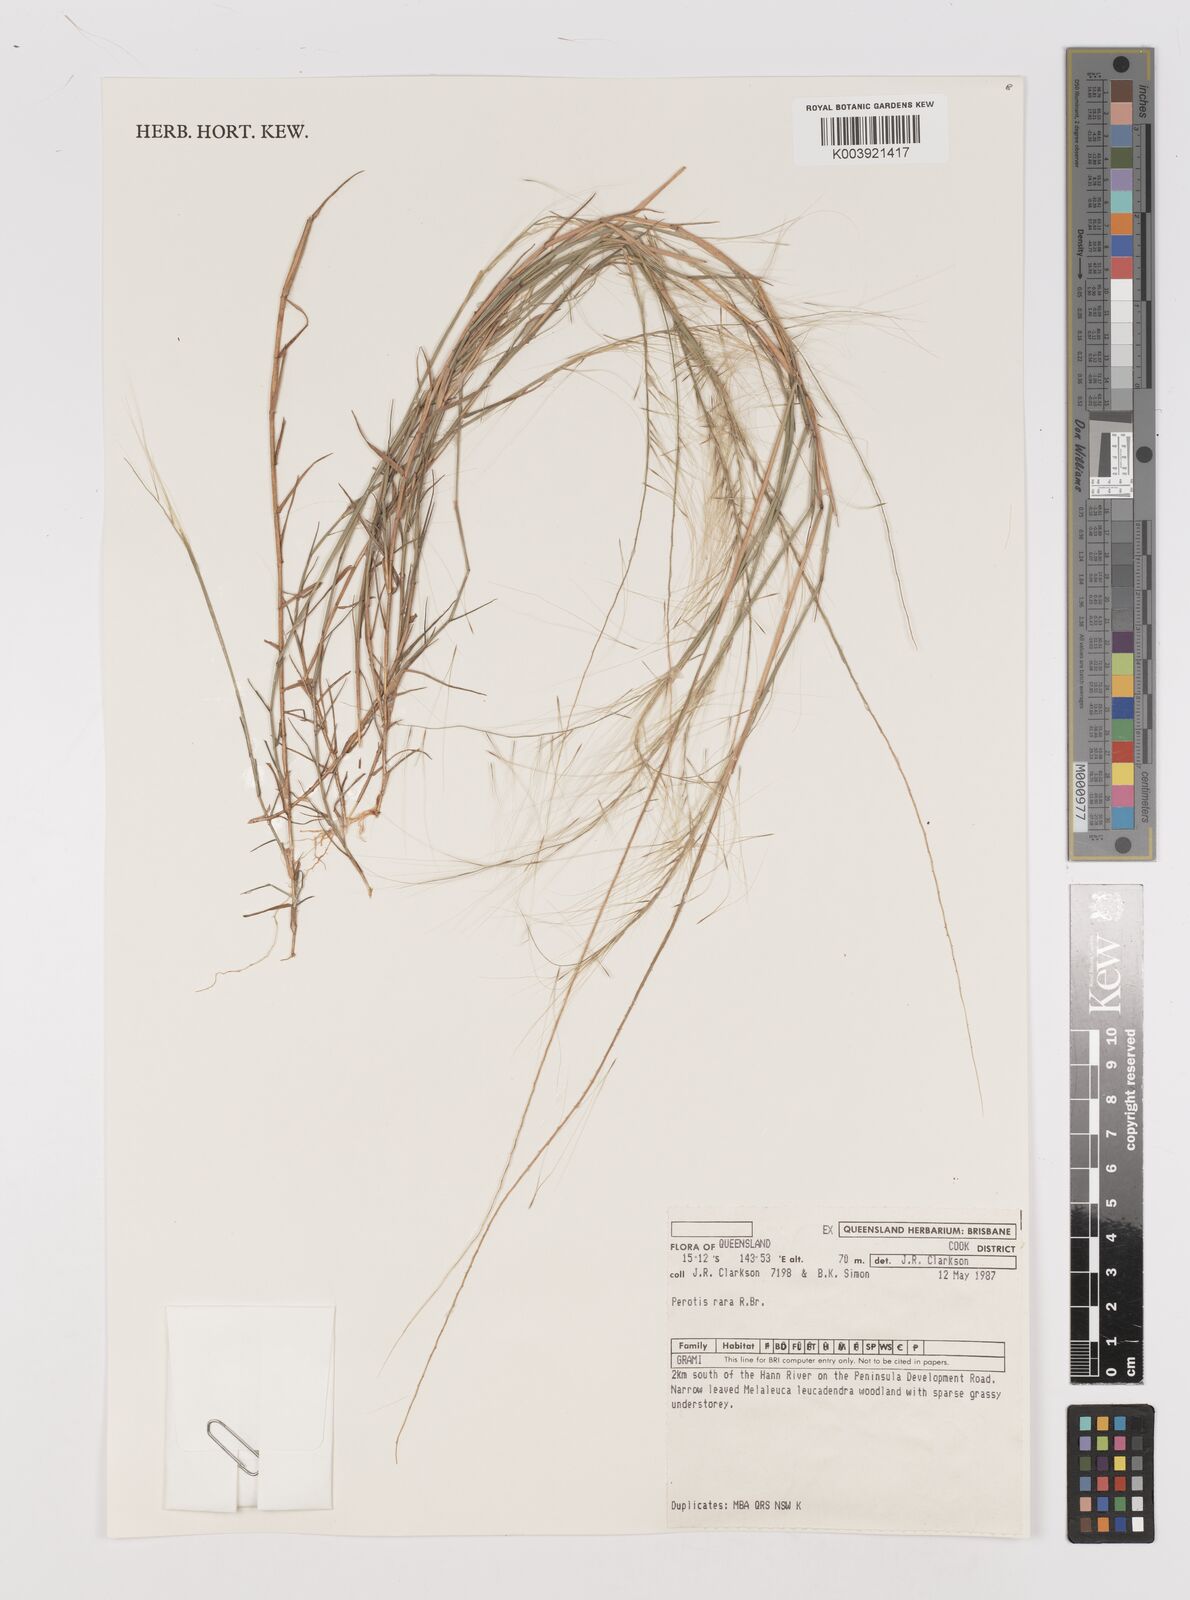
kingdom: Plantae
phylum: Tracheophyta
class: Liliopsida
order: Poales
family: Poaceae
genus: Perotis
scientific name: Perotis rara
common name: Comet grass
